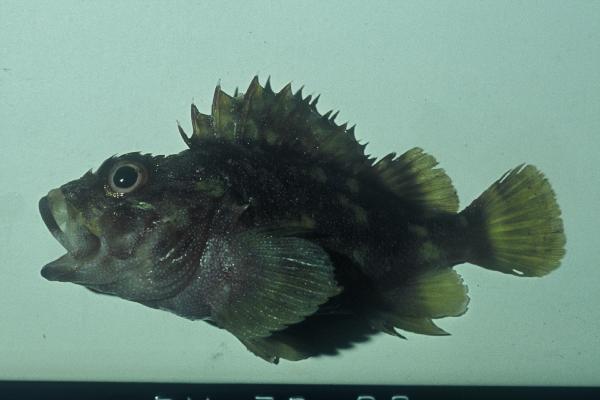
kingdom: Animalia
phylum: Chordata
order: Scorpaeniformes
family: Scorpaenidae
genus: Sebastapistes
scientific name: Sebastapistes cyanostigma
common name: Yellowspotted scorpionfish
